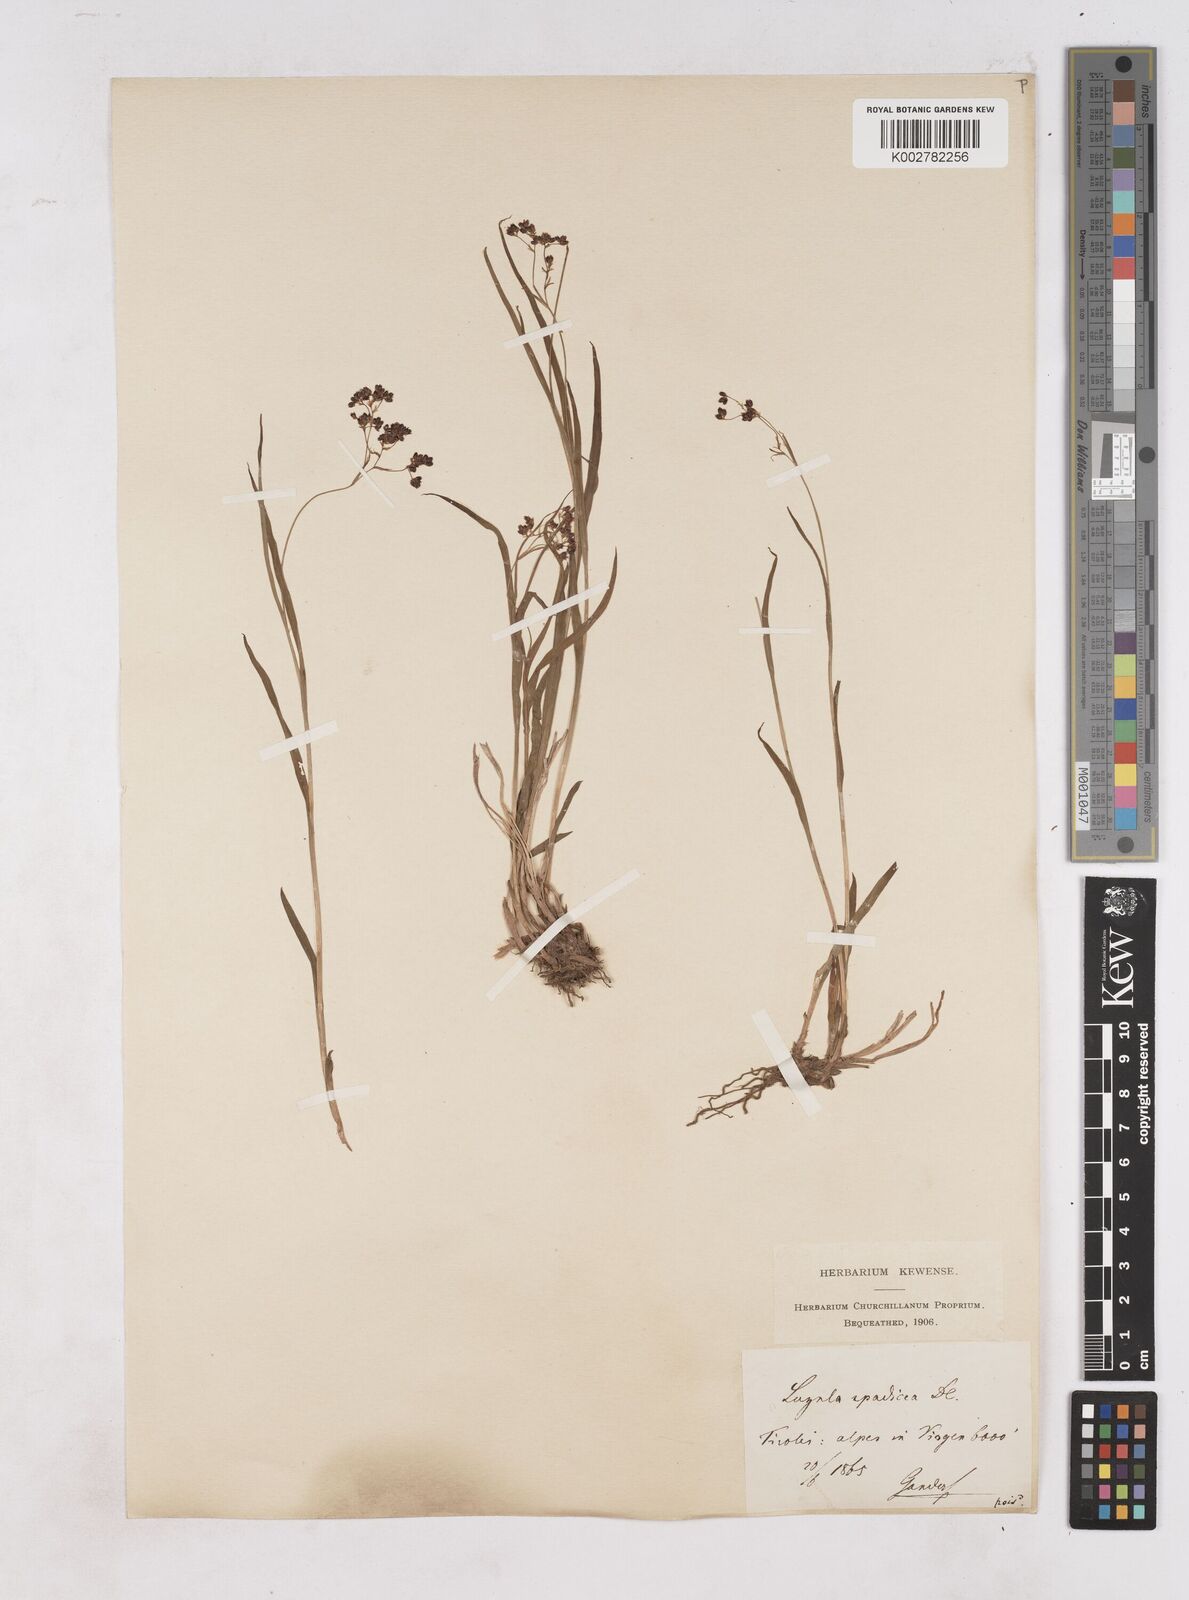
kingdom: Plantae
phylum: Tracheophyta
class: Liliopsida
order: Poales
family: Juncaceae
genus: Luzula
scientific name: Luzula alpinopilosa
